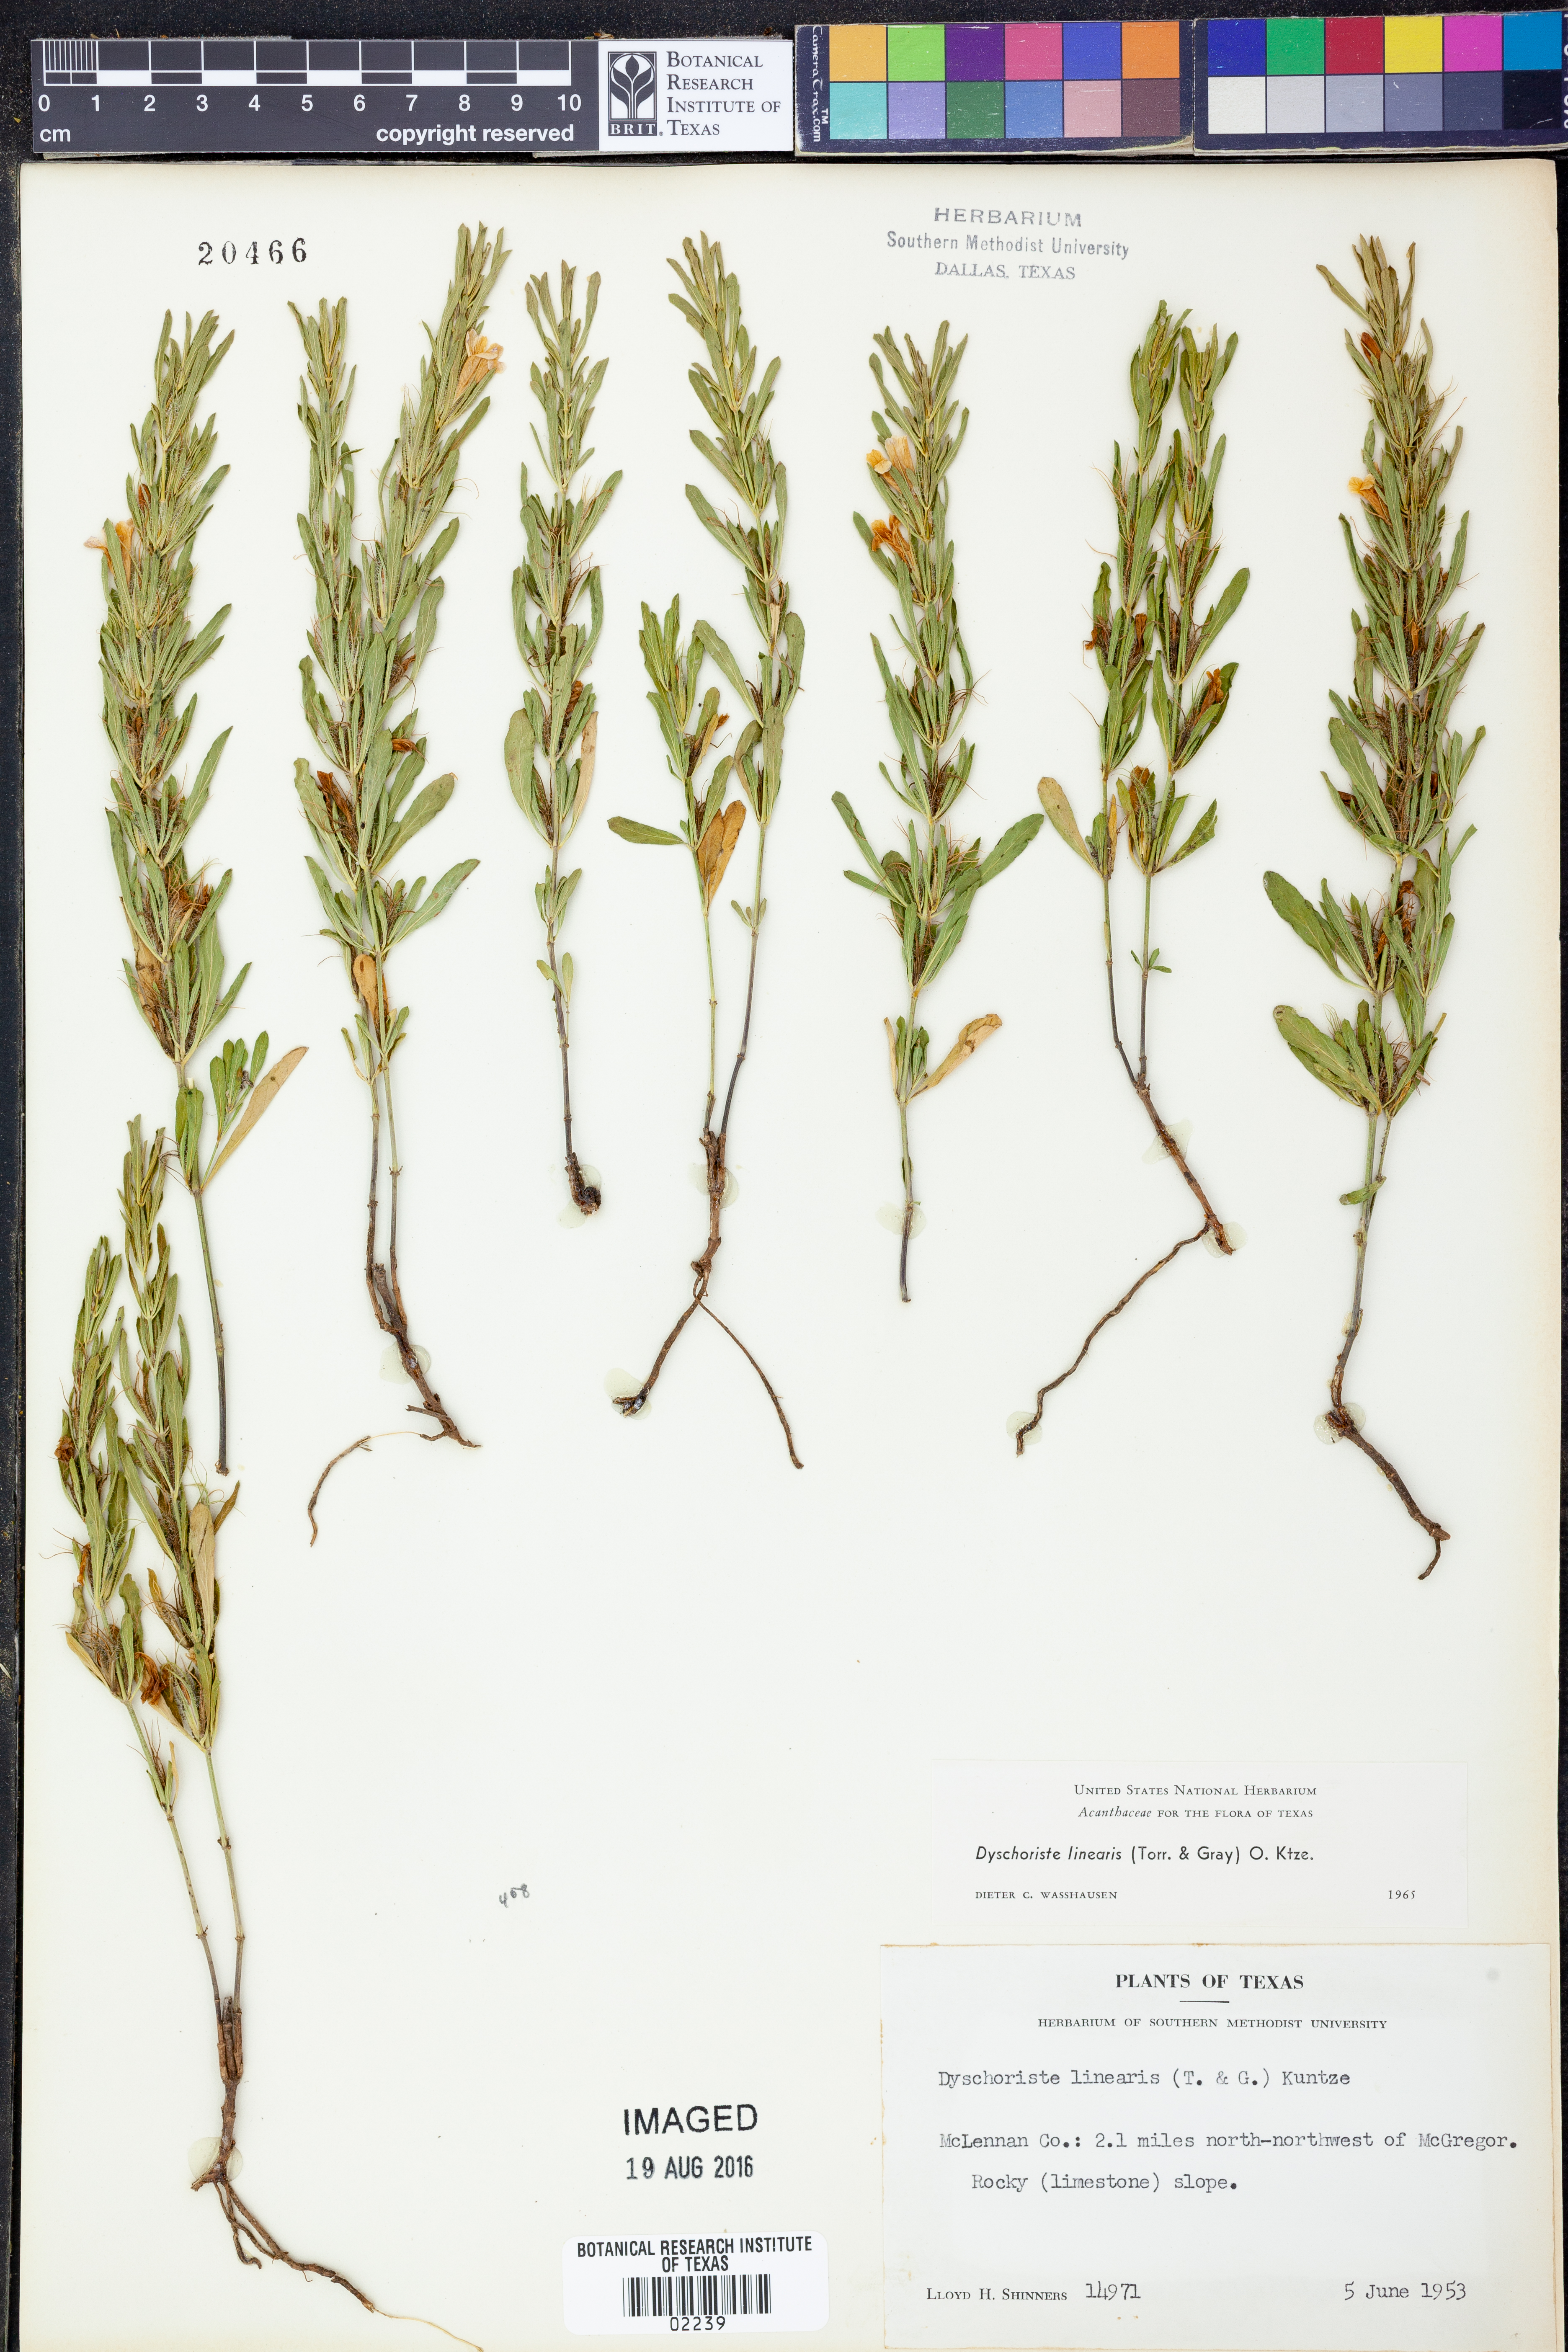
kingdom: Plantae
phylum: Tracheophyta
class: Magnoliopsida
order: Lamiales
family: Acanthaceae
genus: Dyschoriste
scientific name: Dyschoriste linearis
